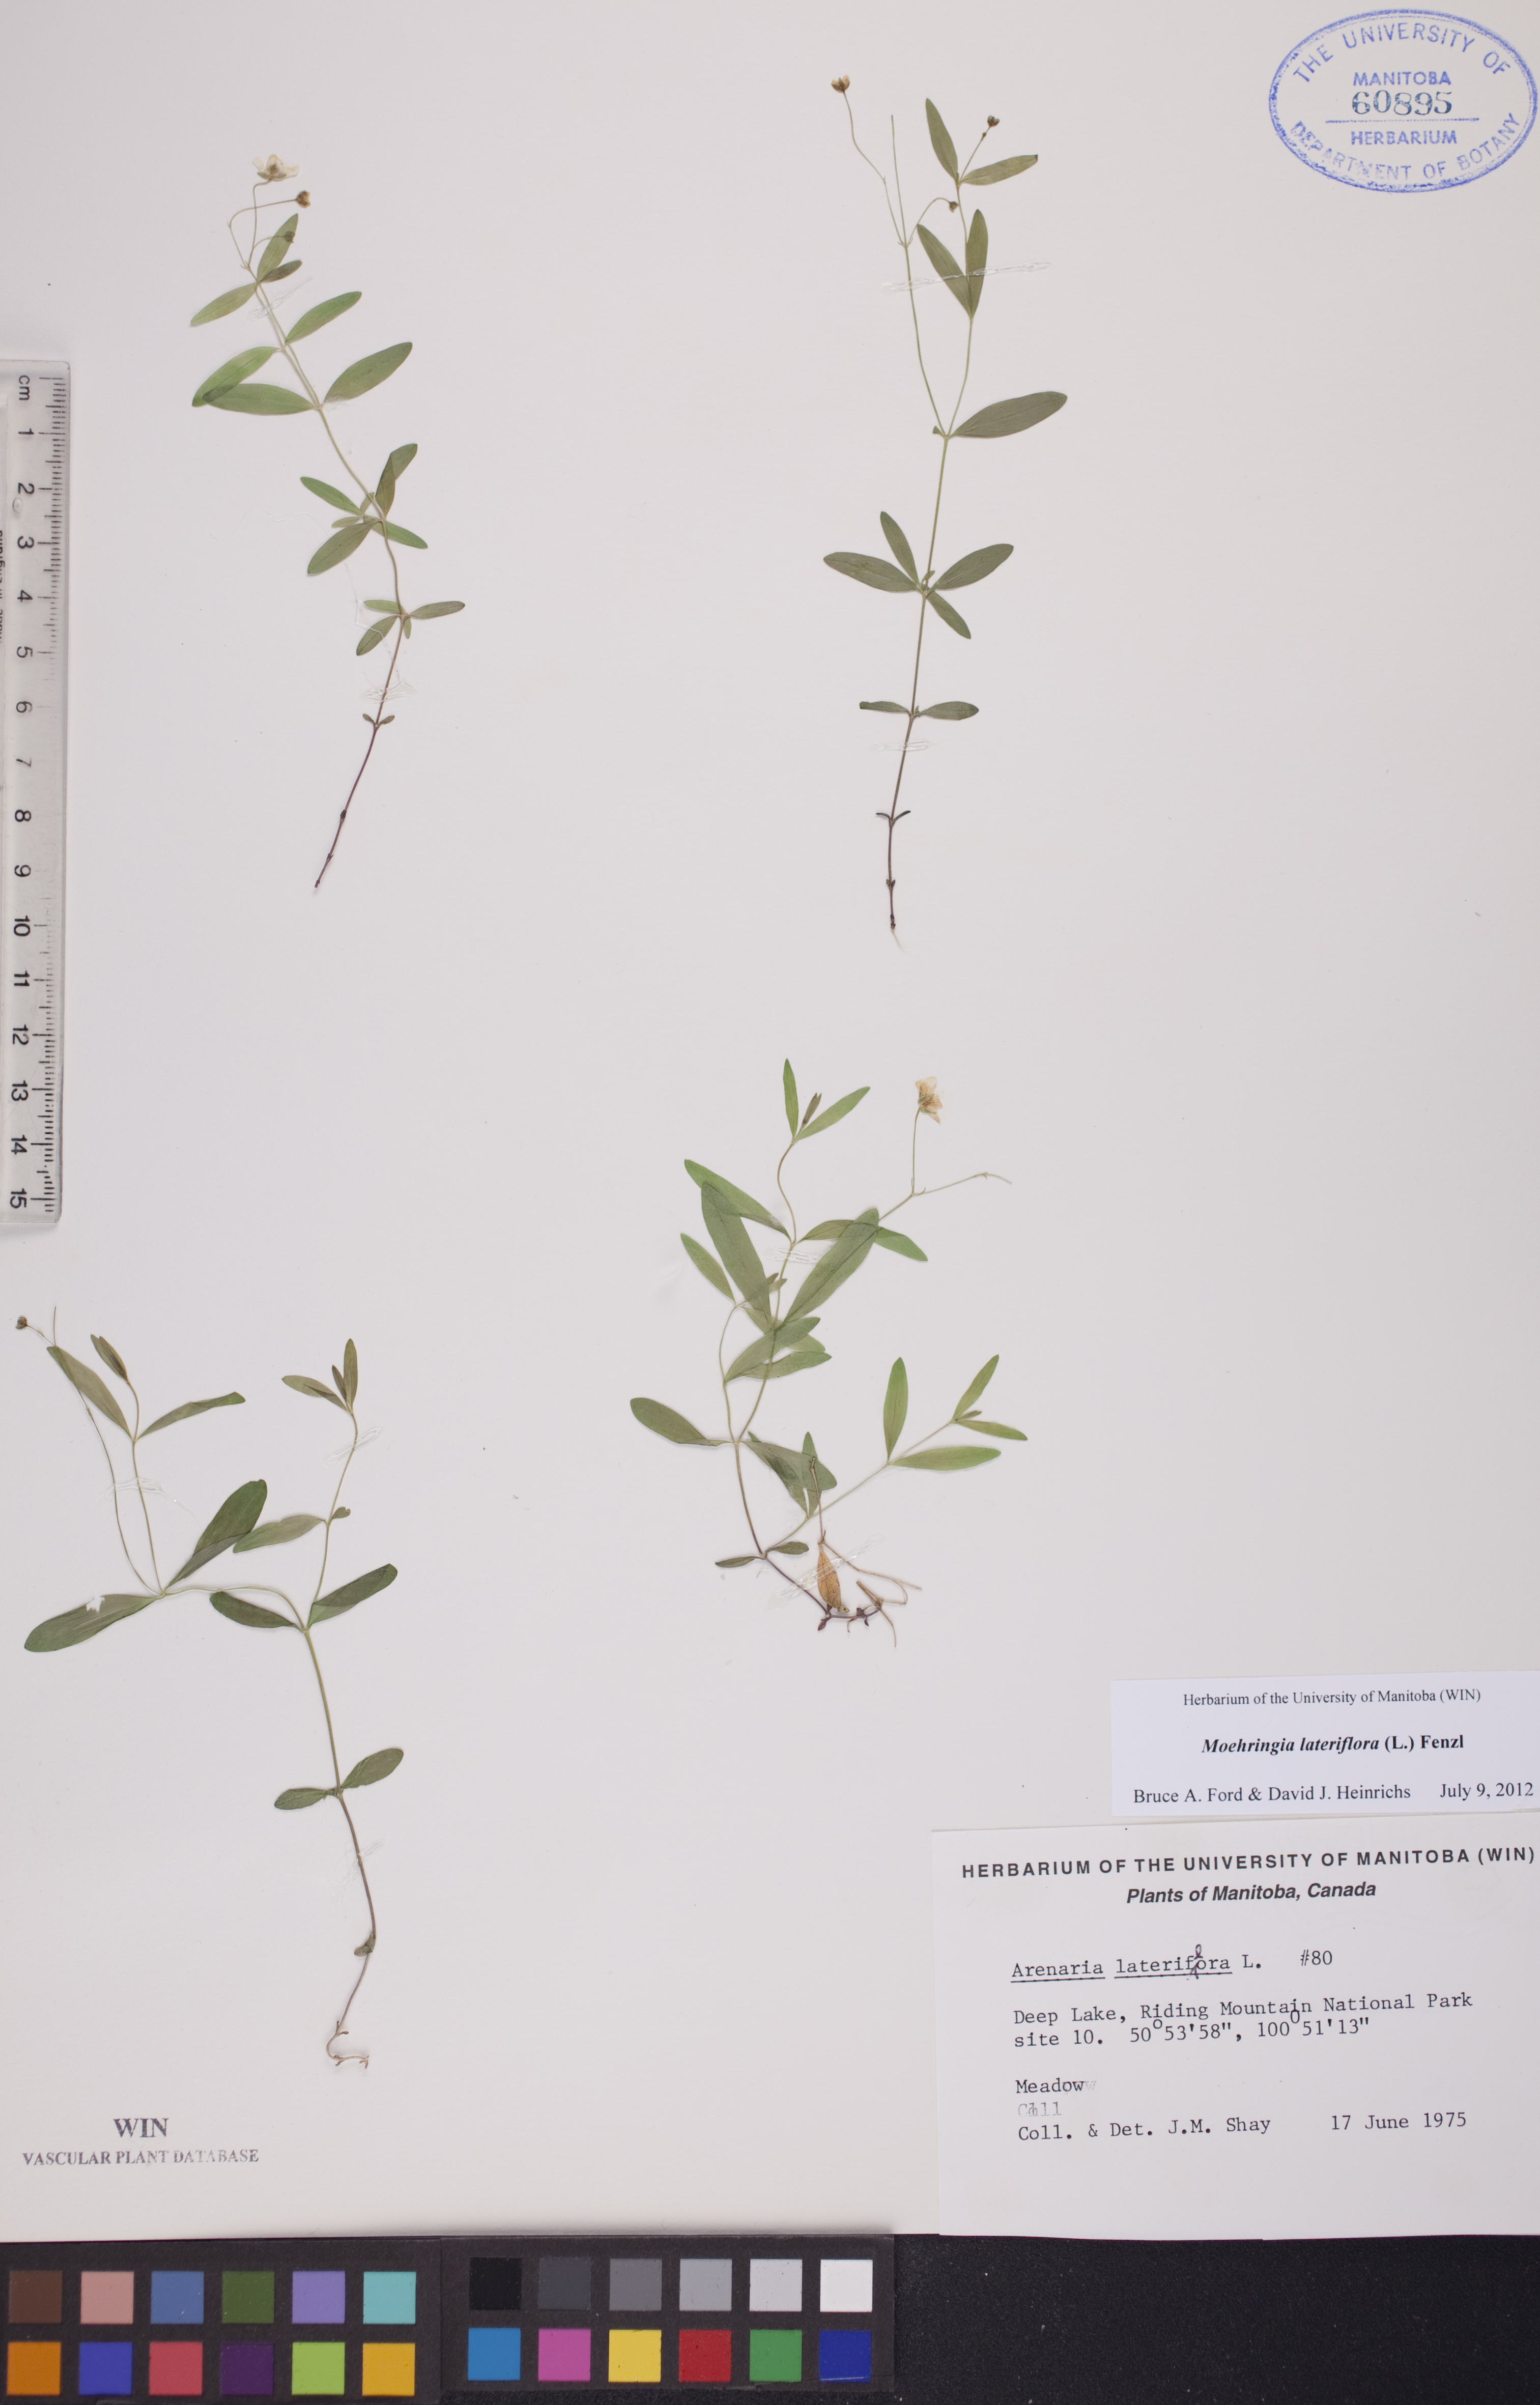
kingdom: Plantae
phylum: Tracheophyta
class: Magnoliopsida
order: Caryophyllales
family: Caryophyllaceae
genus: Moehringia
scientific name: Moehringia lateriflora
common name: Blunt-leaved sandwort
